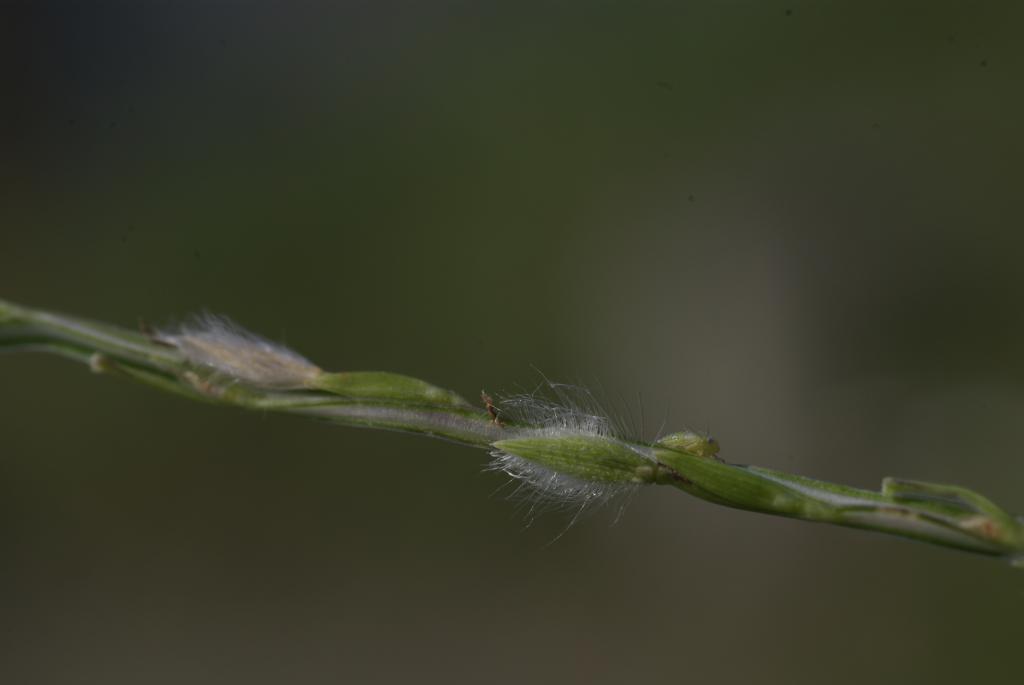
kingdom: Plantae
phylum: Tracheophyta
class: Liliopsida
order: Poales
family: Poaceae
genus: Digitaria
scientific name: Digitaria heterantha
